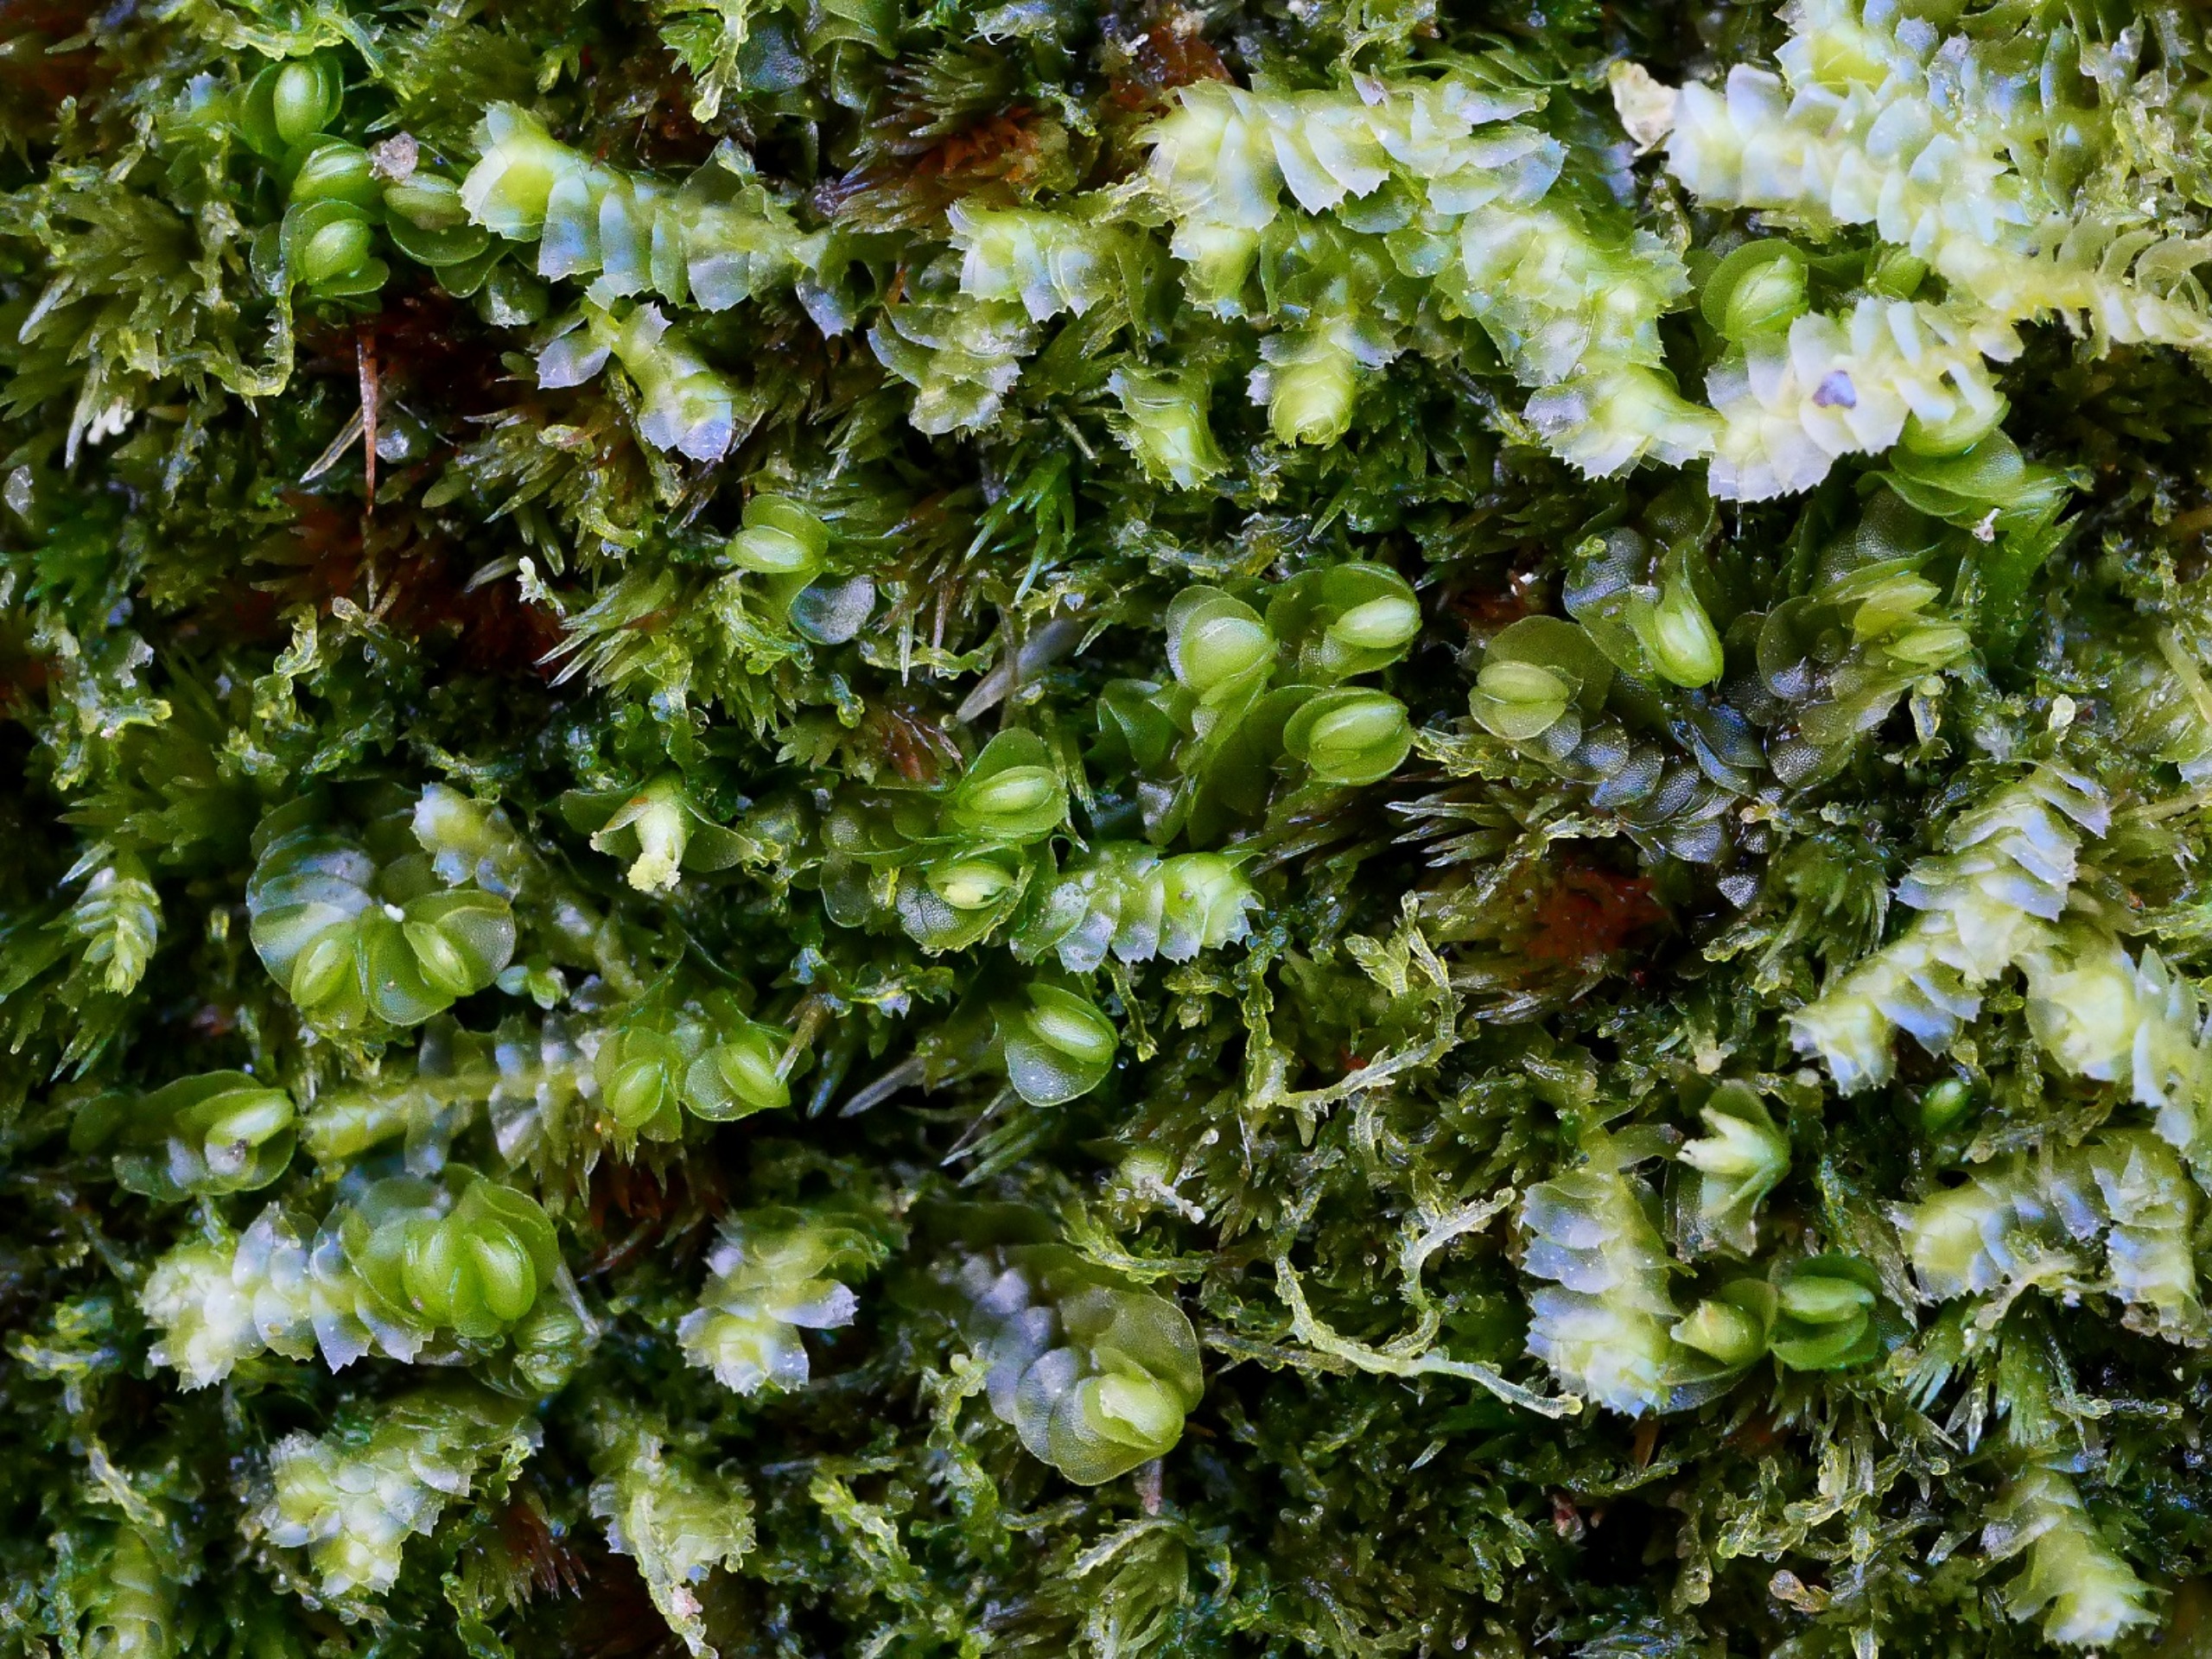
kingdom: Plantae
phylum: Marchantiophyta
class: Jungermanniopsida
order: Jungermanniales
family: Myliaceae
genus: Mylia
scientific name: Mylia anomala
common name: Mose-fladmund
